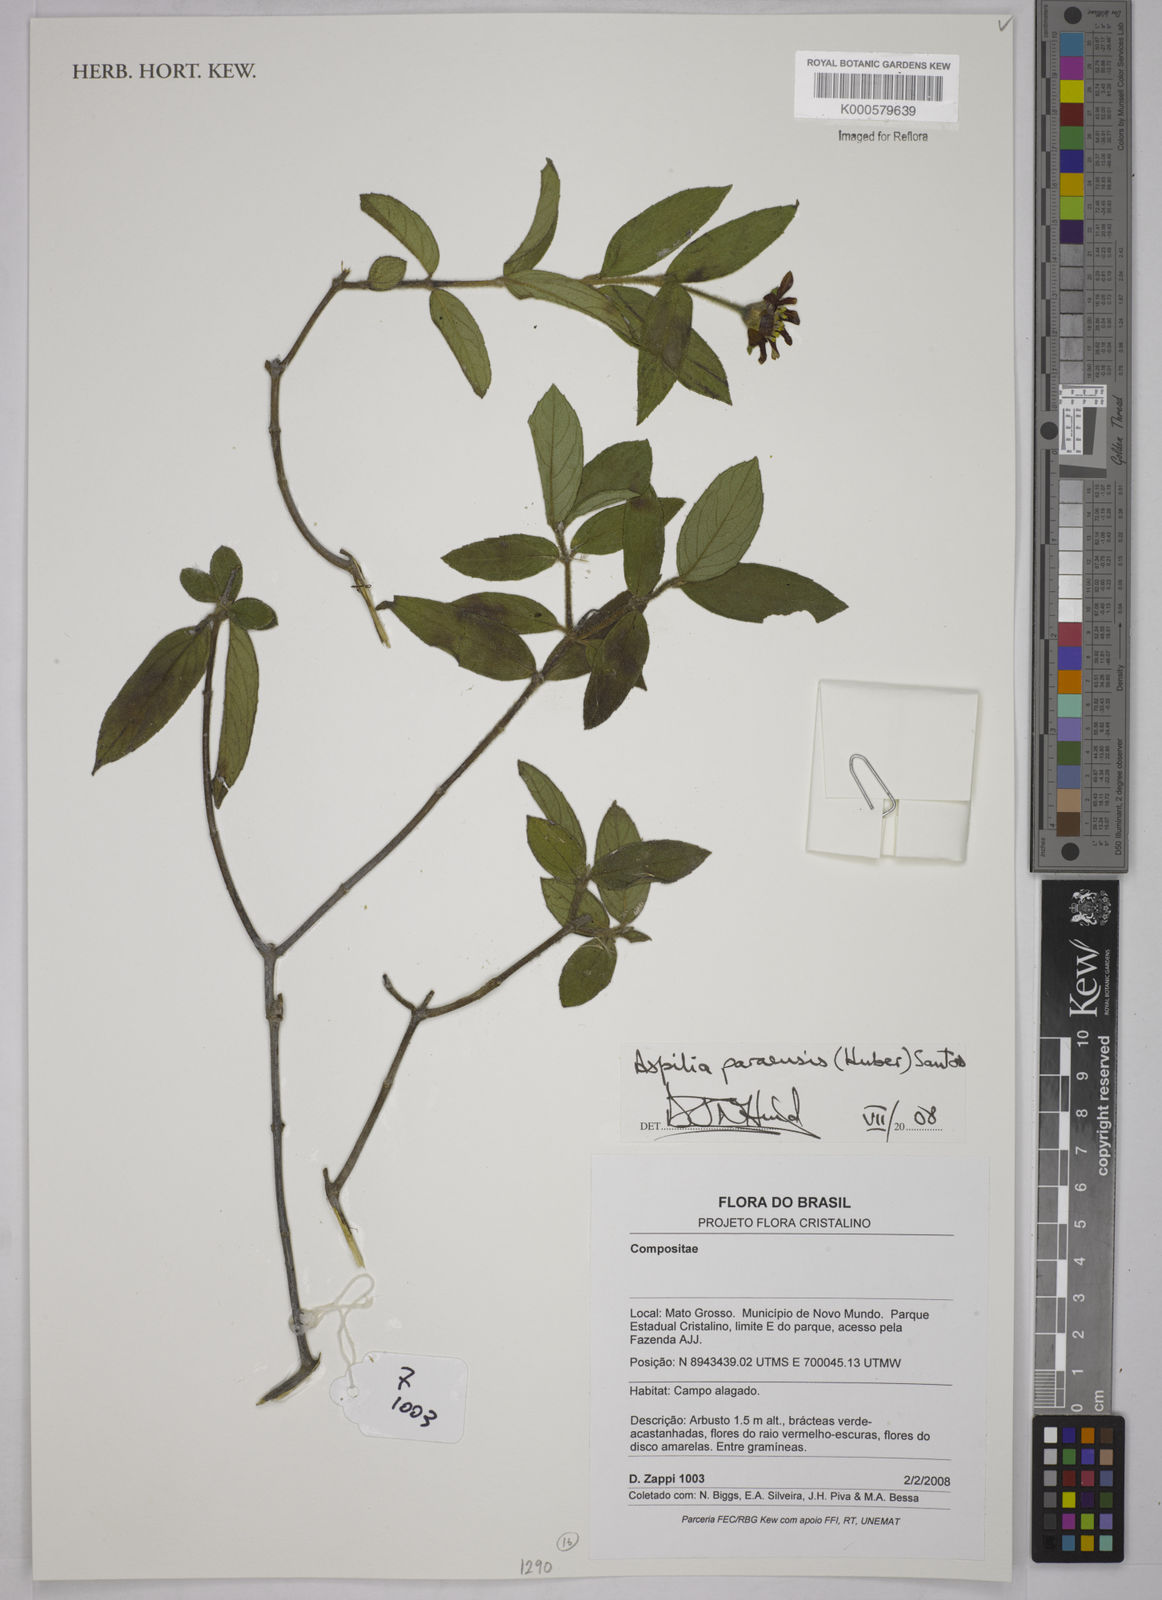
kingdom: Plantae
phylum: Tracheophyta
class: Magnoliopsida
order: Asterales
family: Asteraceae
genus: Aspilia
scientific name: Aspilia paraensis
